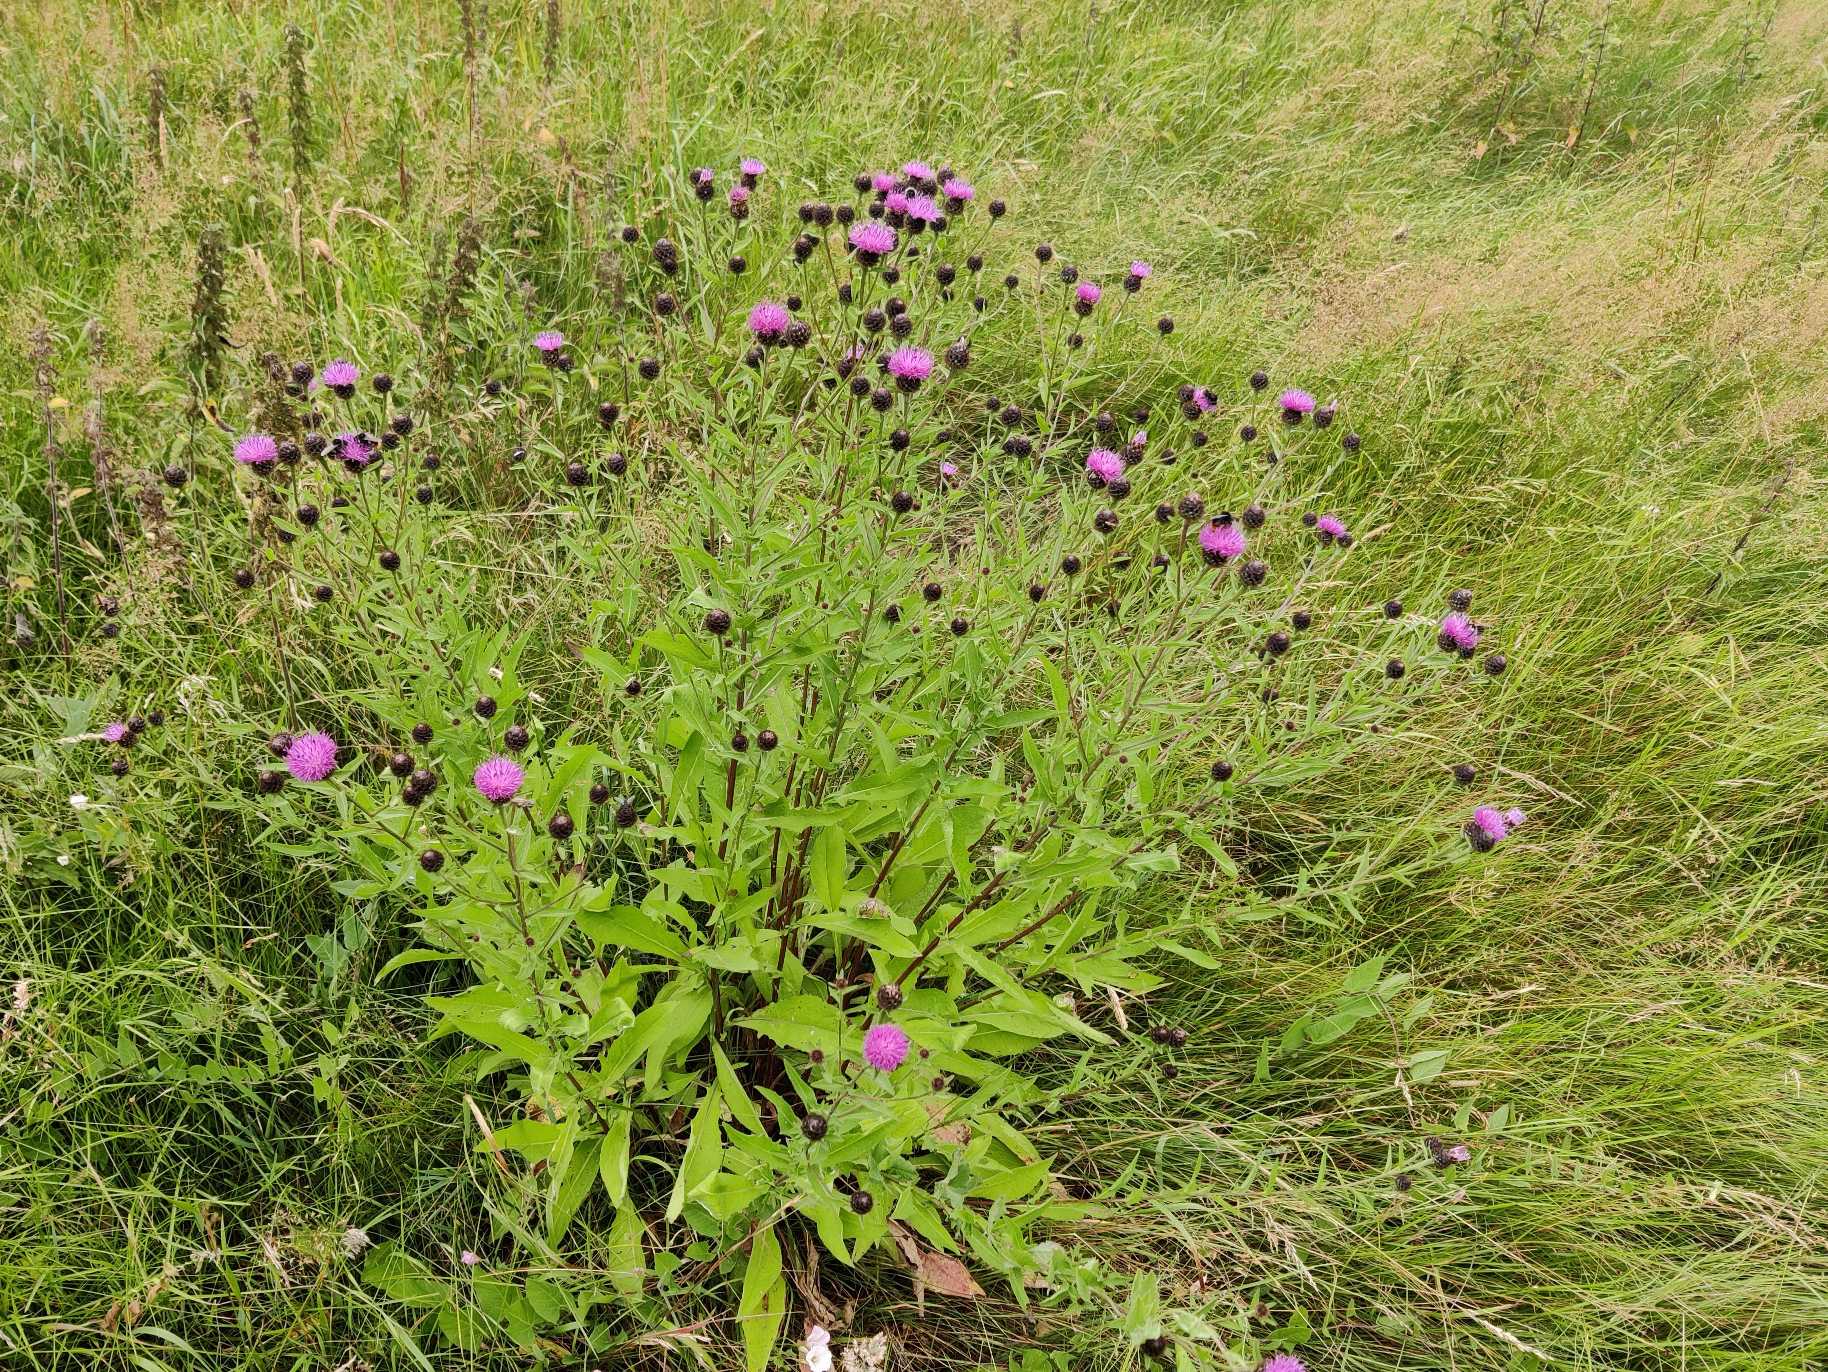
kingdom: Plantae
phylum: Tracheophyta
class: Magnoliopsida
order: Asterales
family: Asteraceae
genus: Centaurea
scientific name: Centaurea nigra
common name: Sorthoved-knopurt
